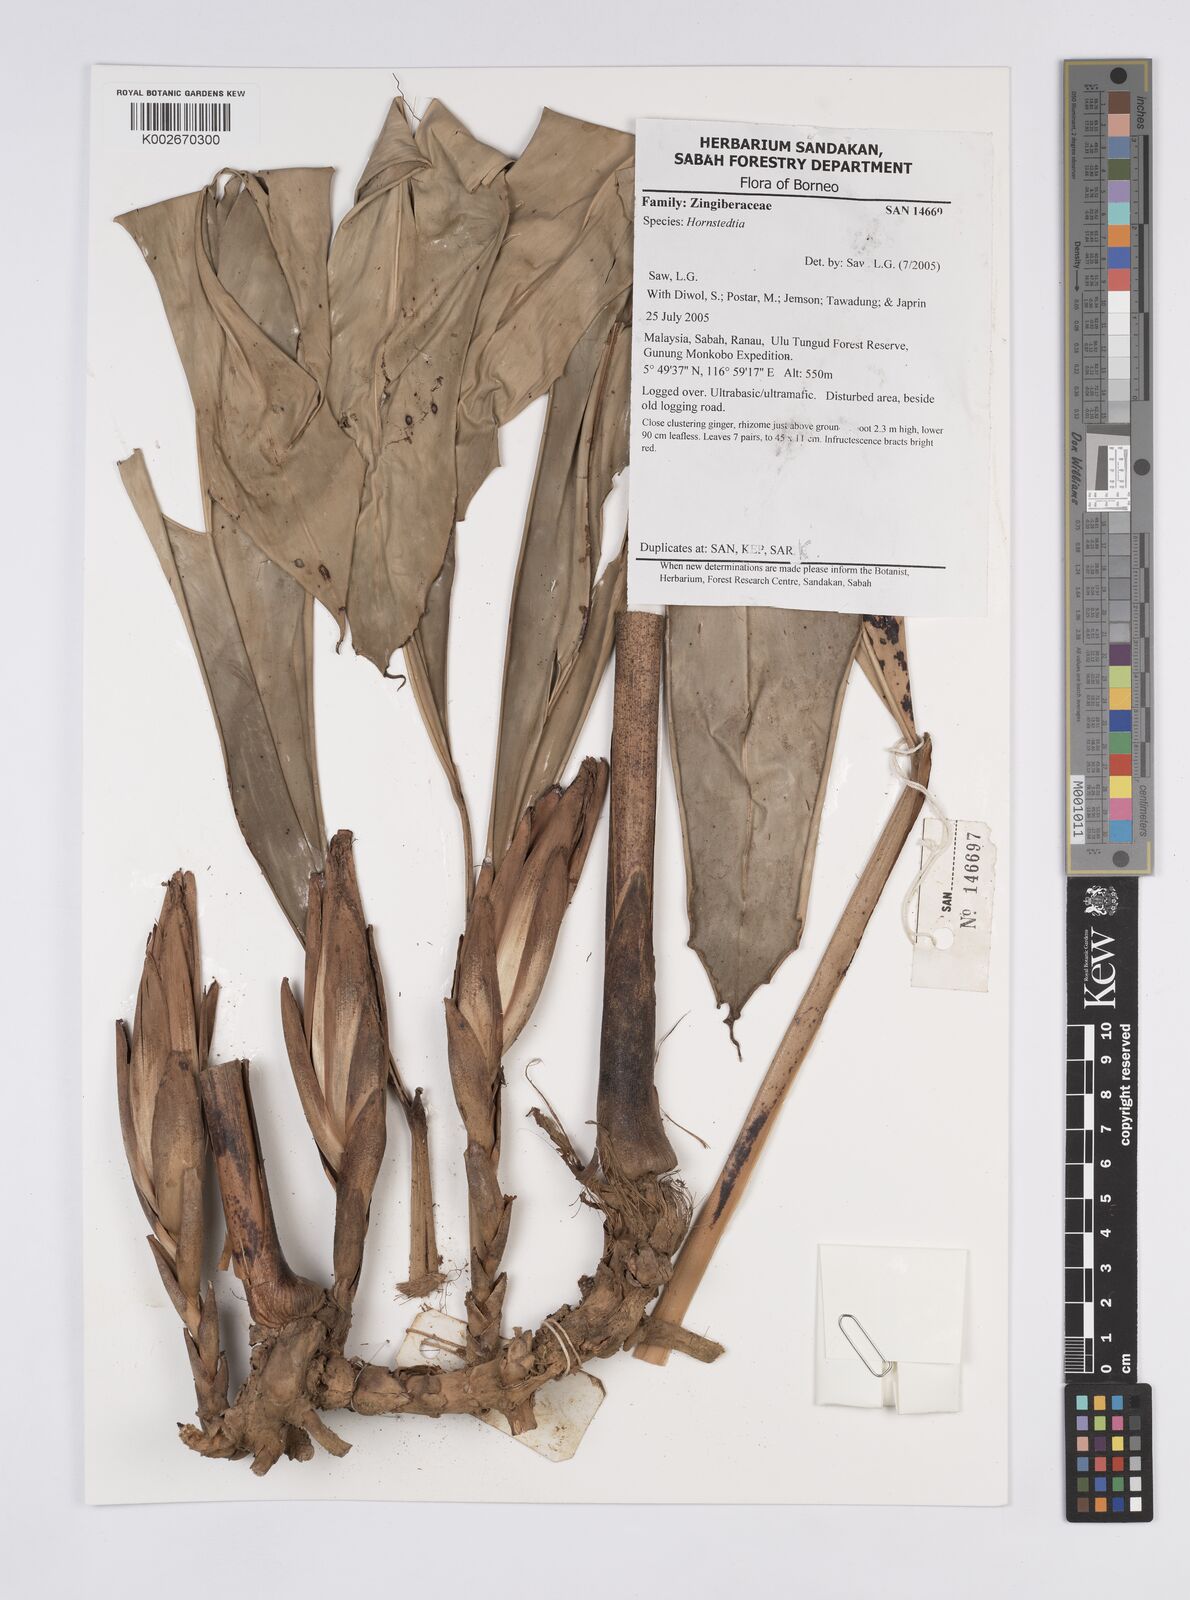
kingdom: Plantae
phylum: Tracheophyta
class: Liliopsida
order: Zingiberales
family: Zingiberaceae
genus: Hornstedtia
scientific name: Hornstedtia
